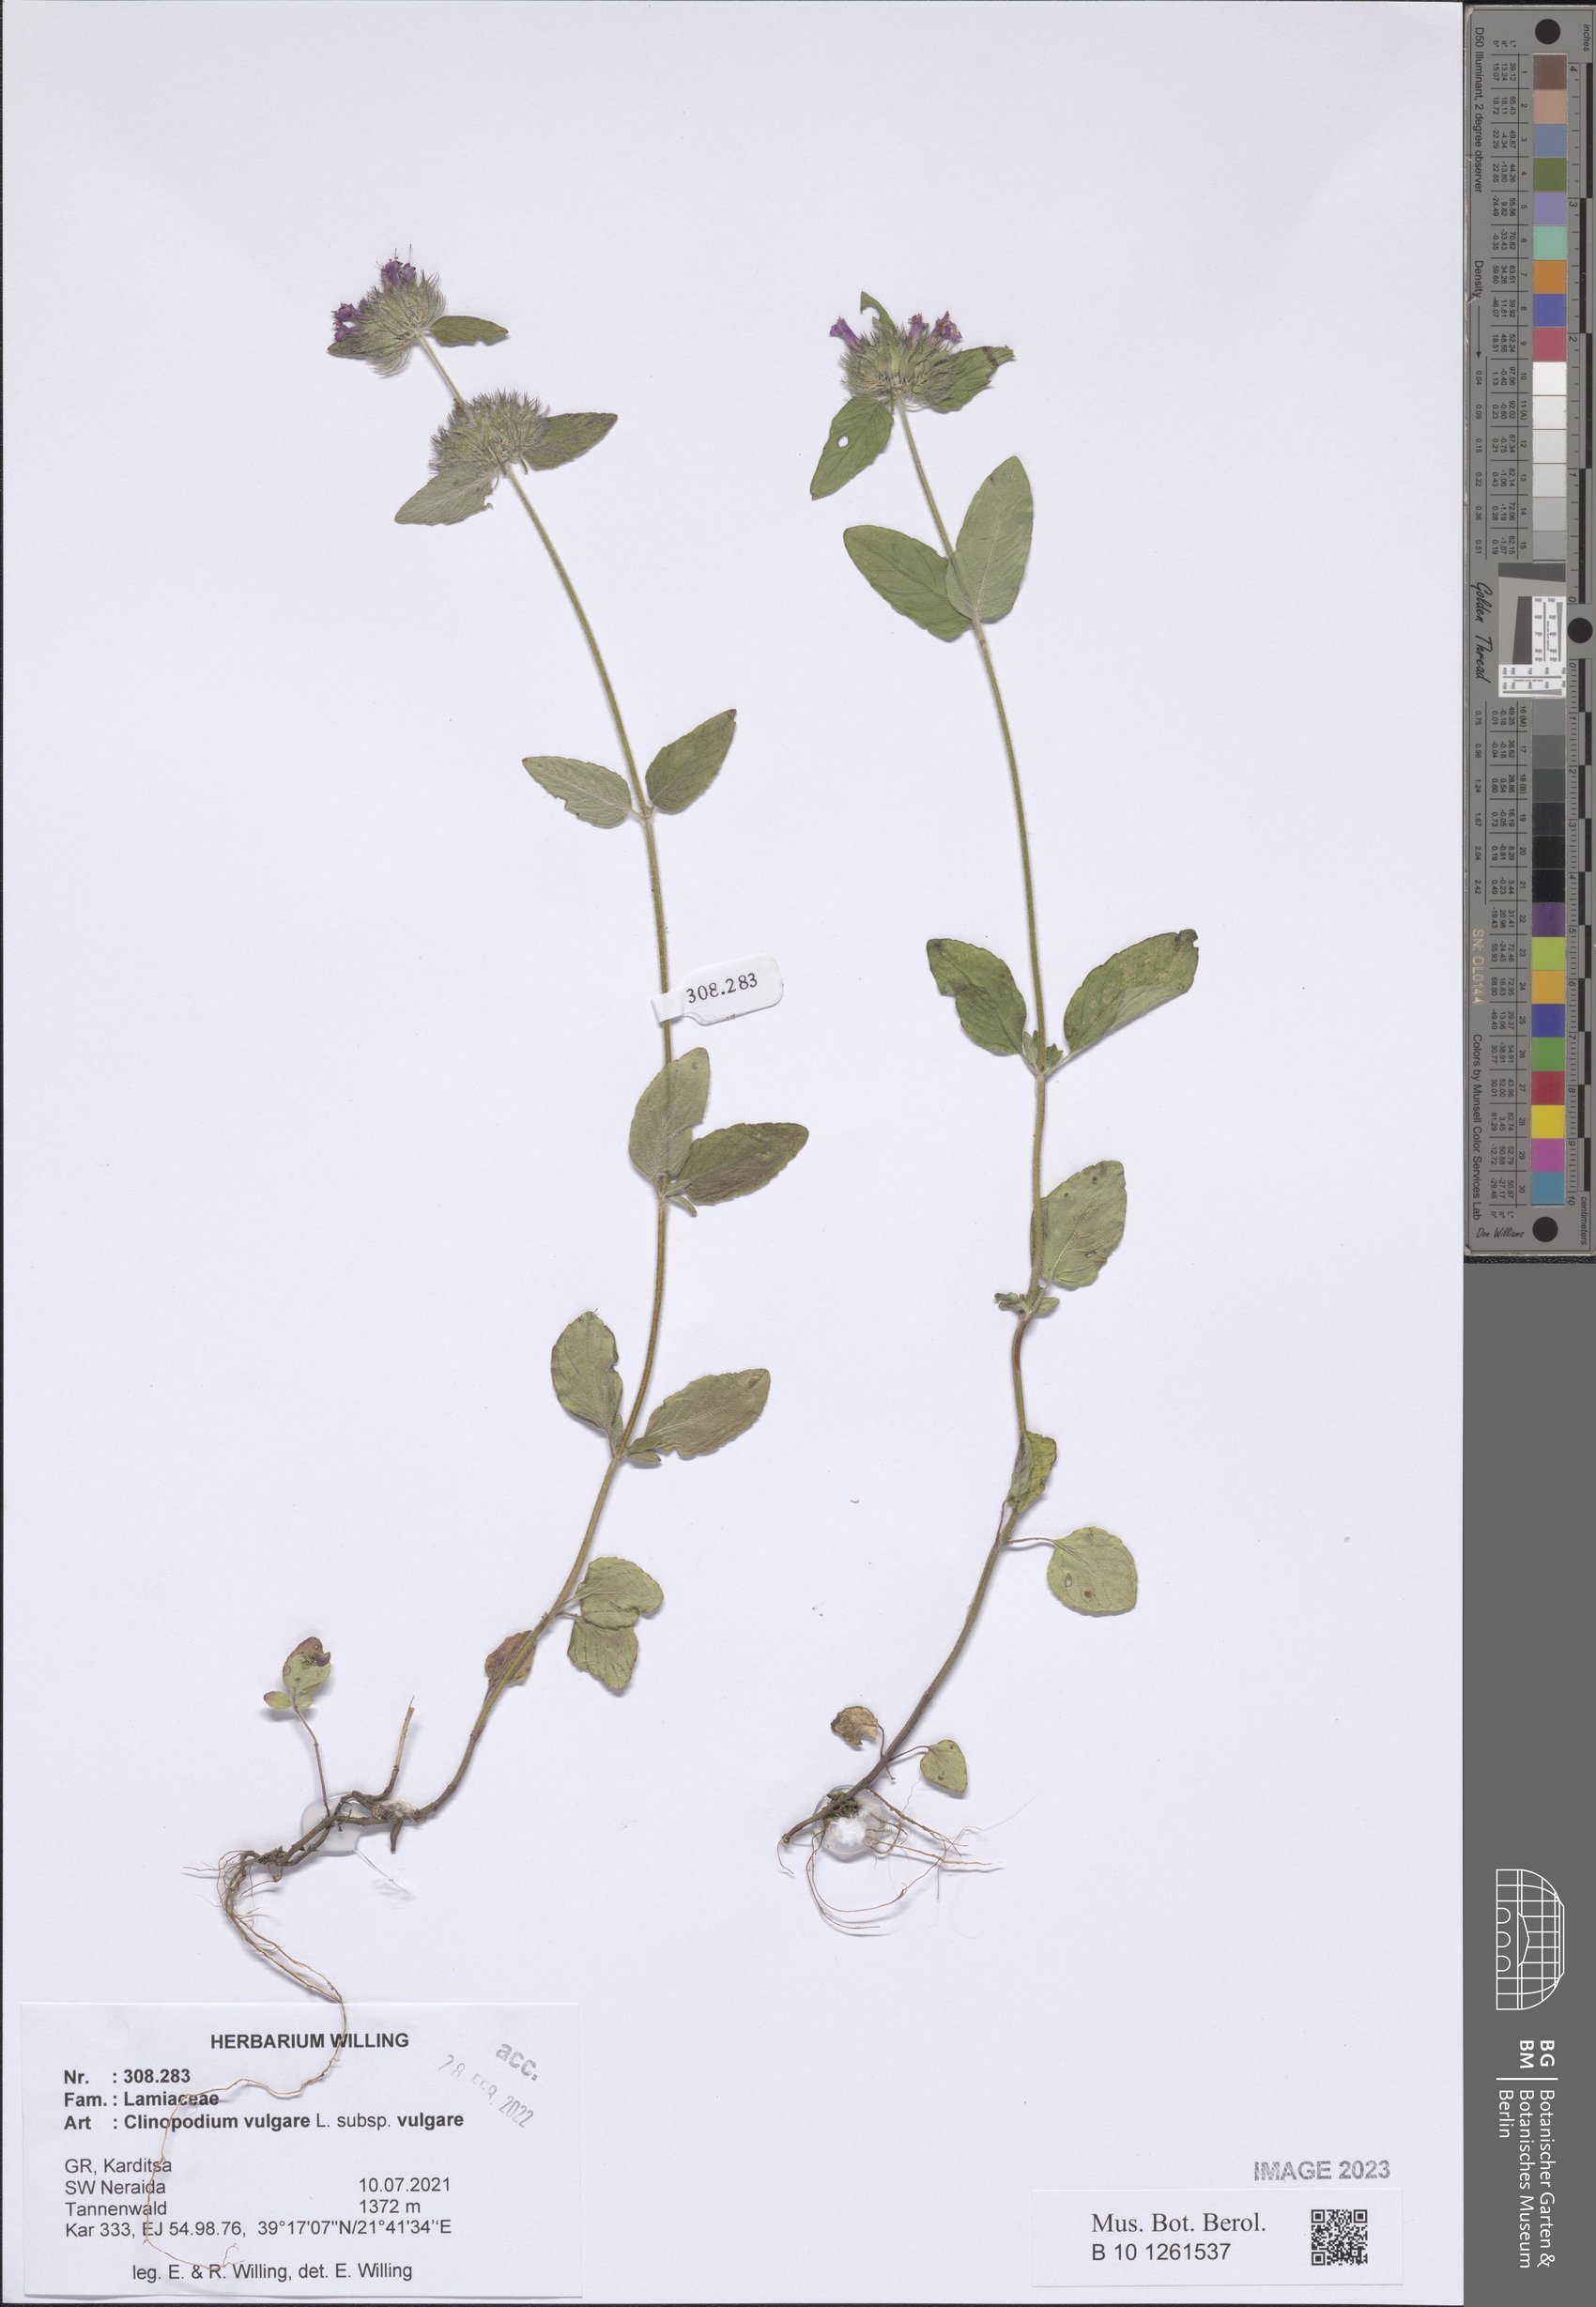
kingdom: Plantae
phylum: Tracheophyta
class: Magnoliopsida
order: Lamiales
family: Lamiaceae
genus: Clinopodium
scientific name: Clinopodium vulgare
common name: Wild basil
